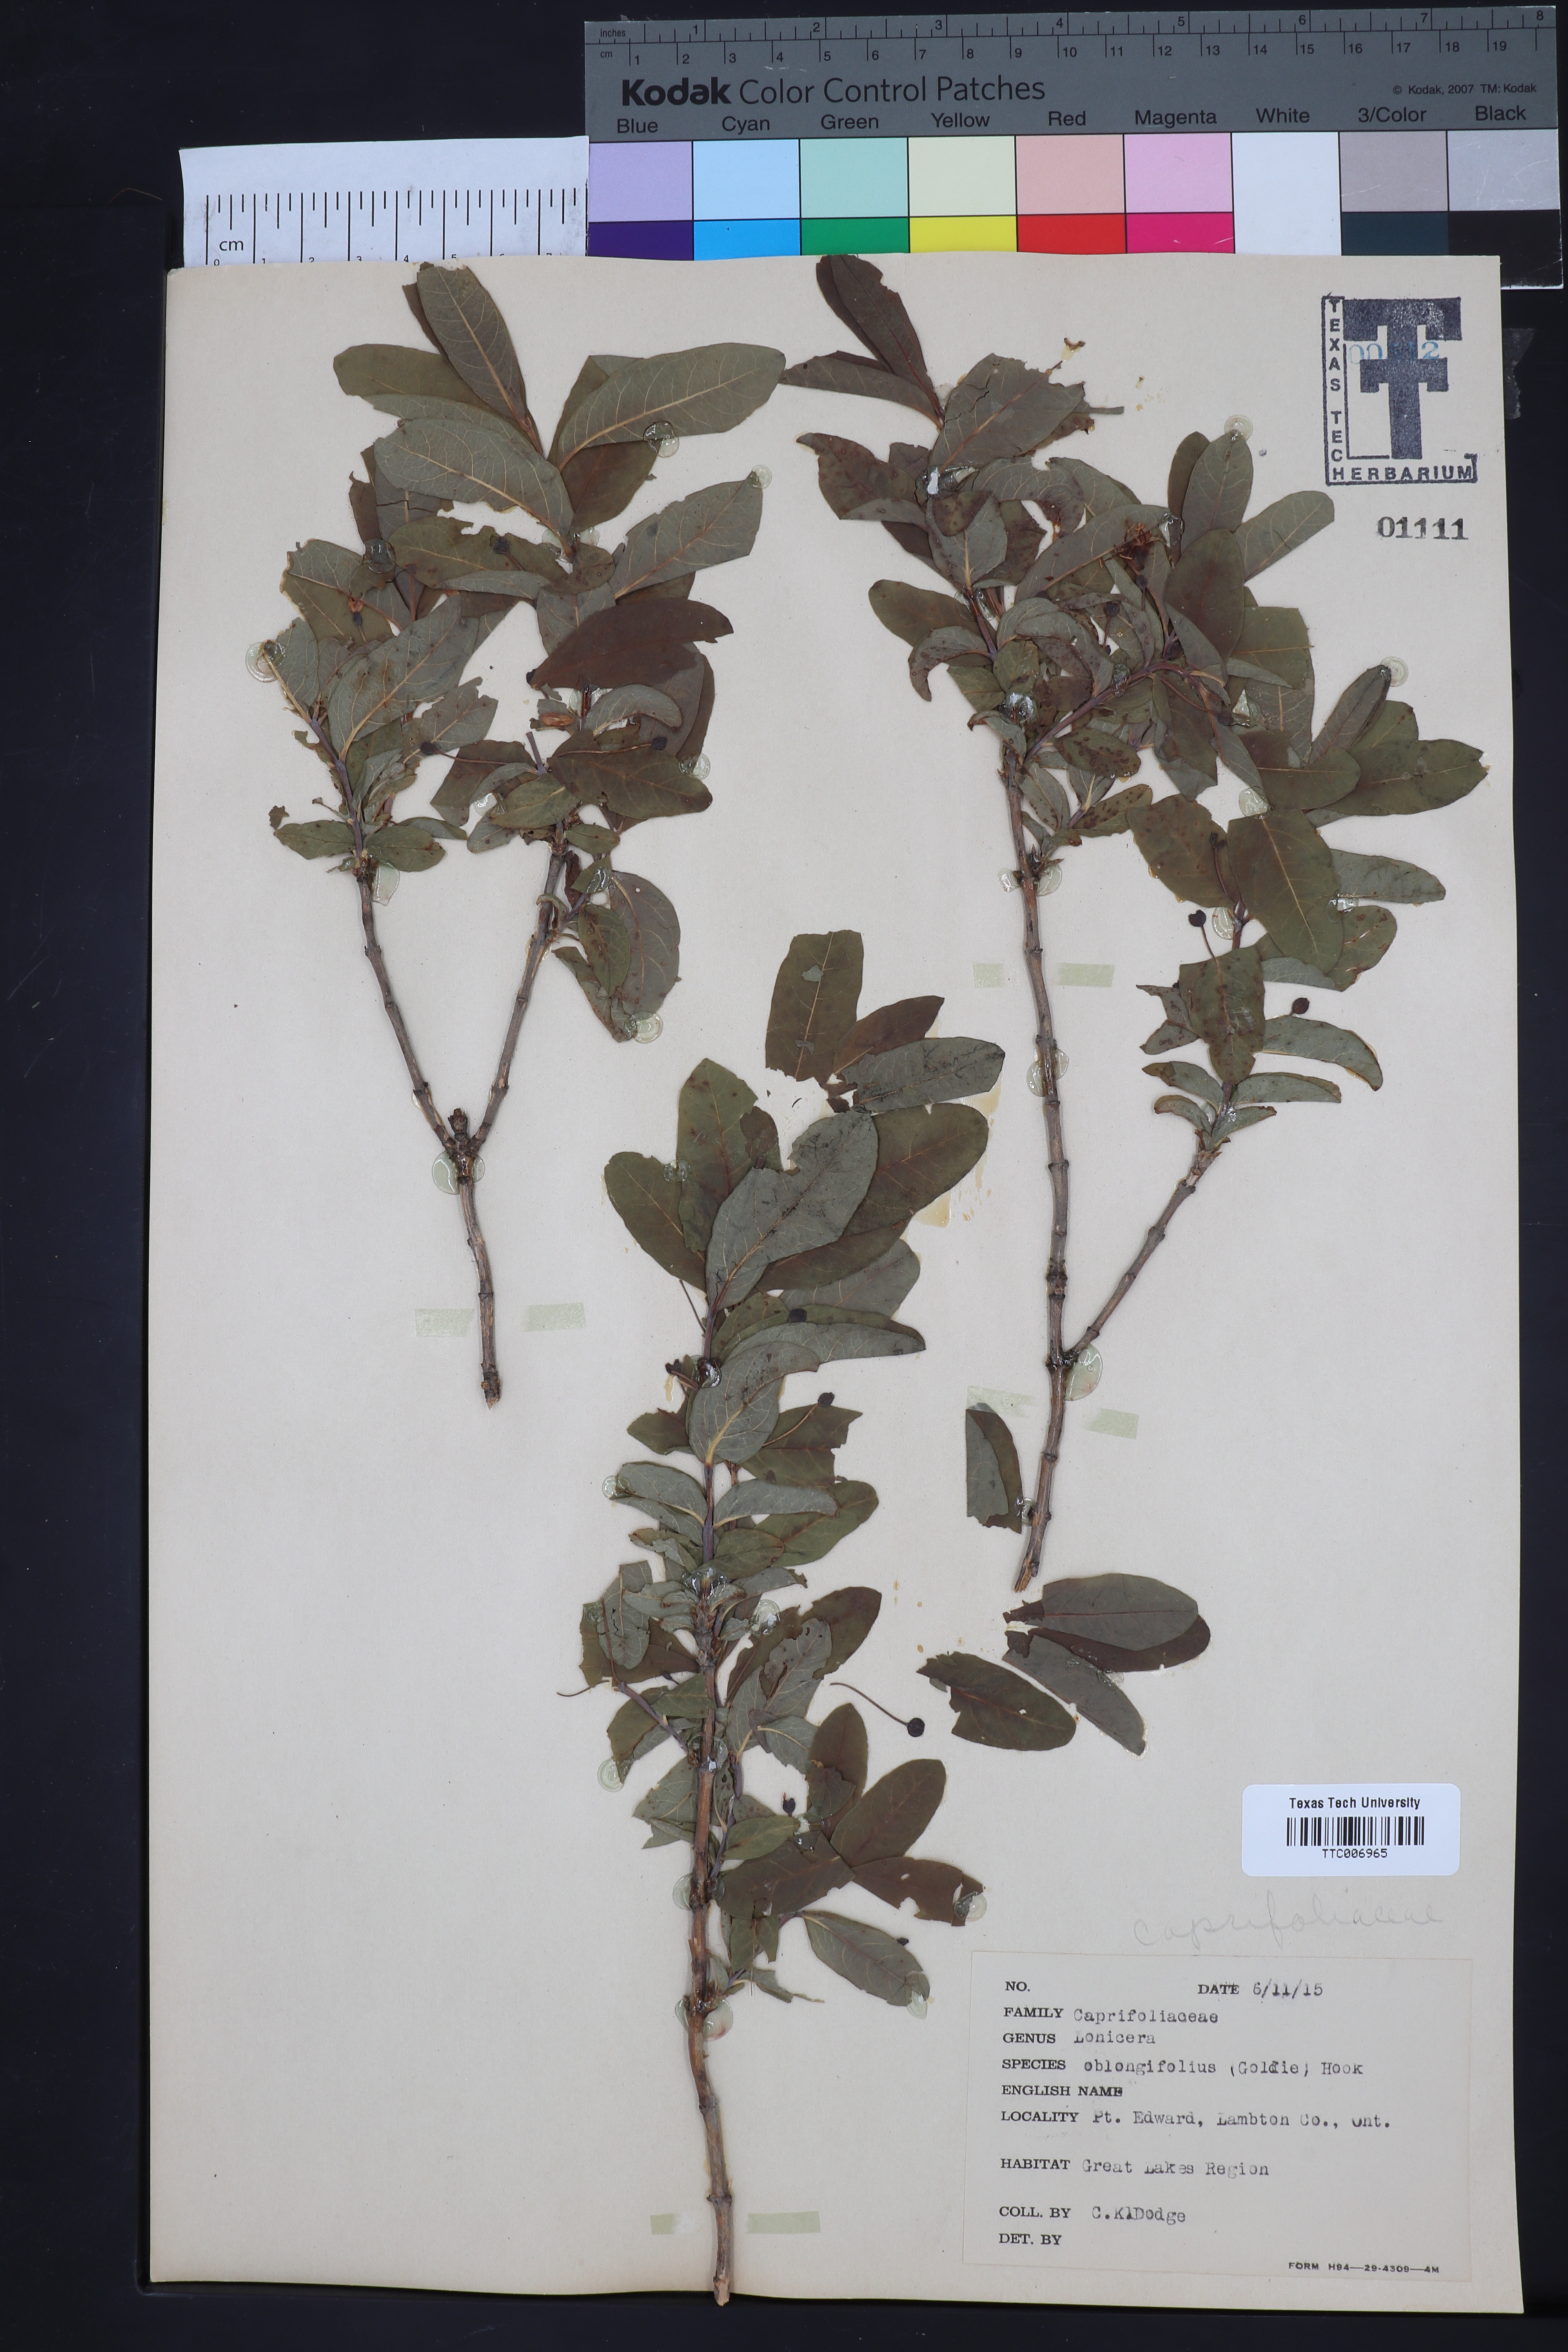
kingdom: Plantae
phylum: Tracheophyta
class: Magnoliopsida
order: Dipsacales
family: Caprifoliaceae
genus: Lonicera
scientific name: Lonicera oblongifolia
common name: Swamp fly honeysuckle
